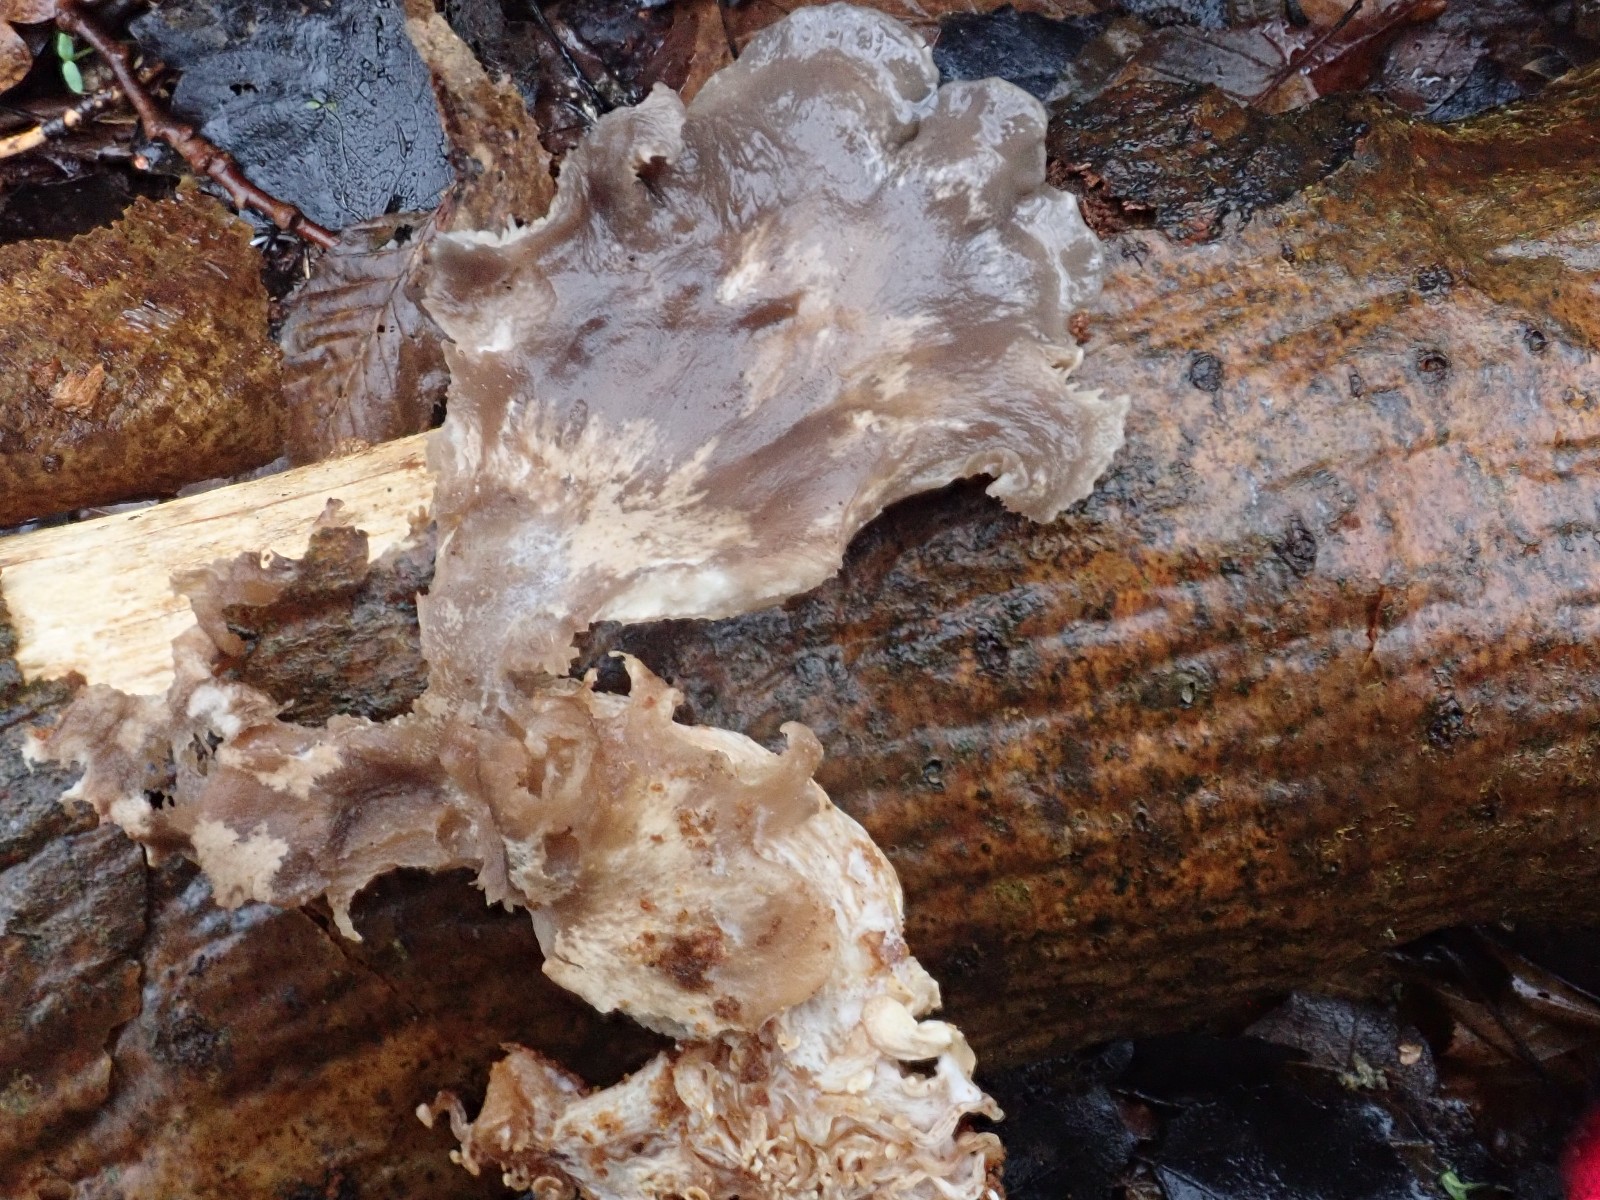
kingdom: Fungi
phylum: Basidiomycota
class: Agaricomycetes
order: Agaricales
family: Pleurotaceae
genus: Pleurotus
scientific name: Pleurotus ostreatus
